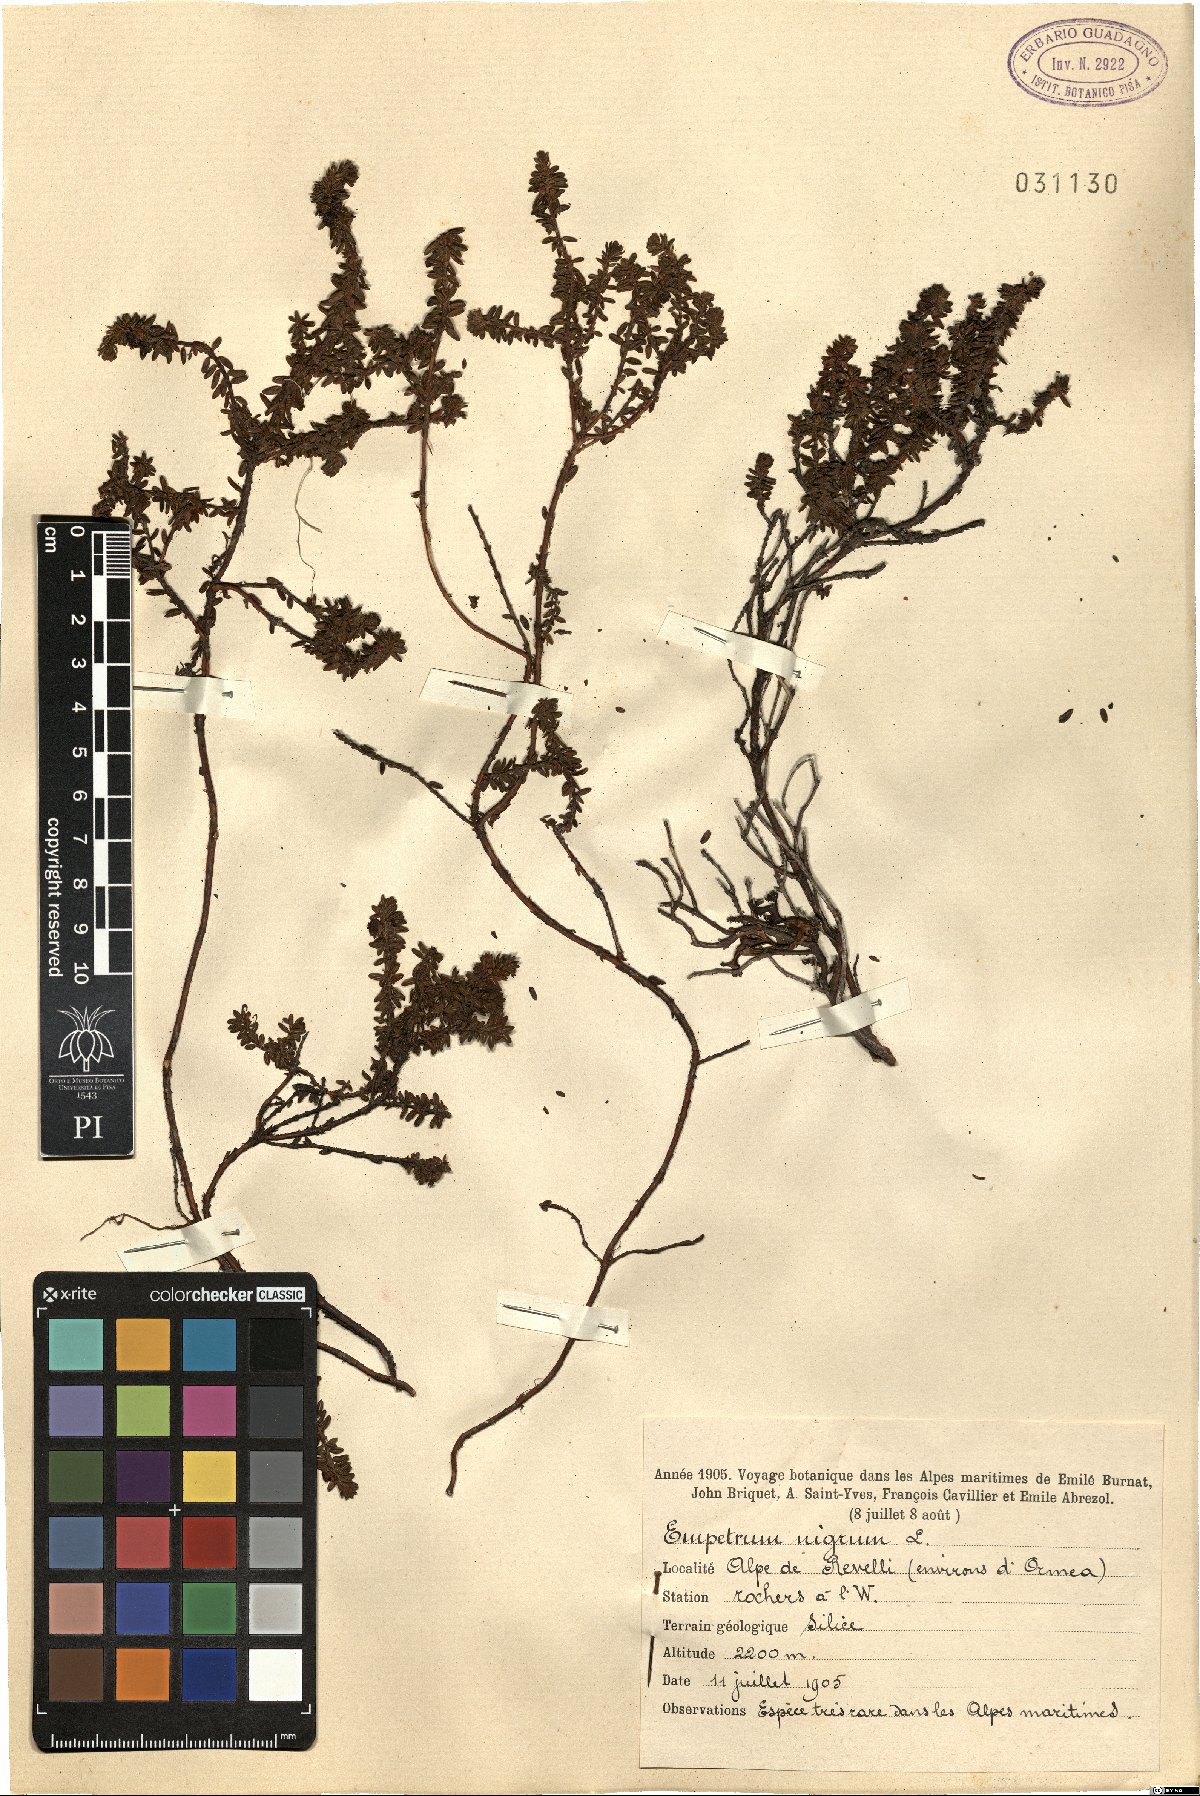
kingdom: Plantae
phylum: Tracheophyta
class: Magnoliopsida
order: Ericales
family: Ericaceae
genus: Empetrum
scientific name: Empetrum nigrum
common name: Black crowberry
